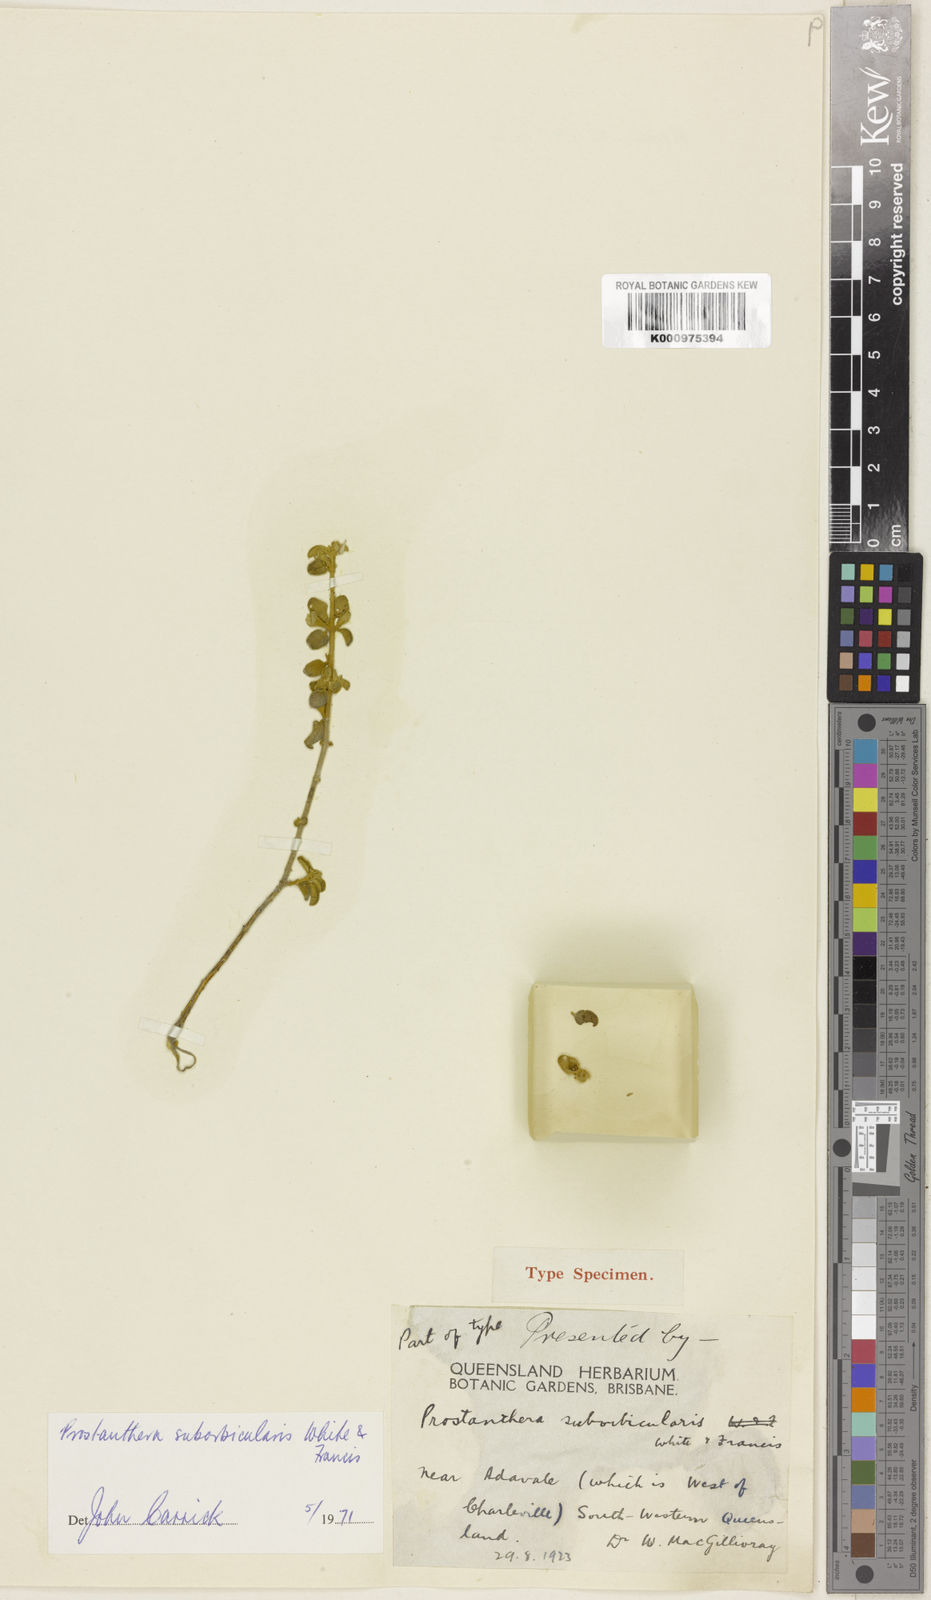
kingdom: Plantae
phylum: Tracheophyta
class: Magnoliopsida
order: Lamiales
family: Lamiaceae
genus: Prostanthera
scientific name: Prostanthera suborbicularis
